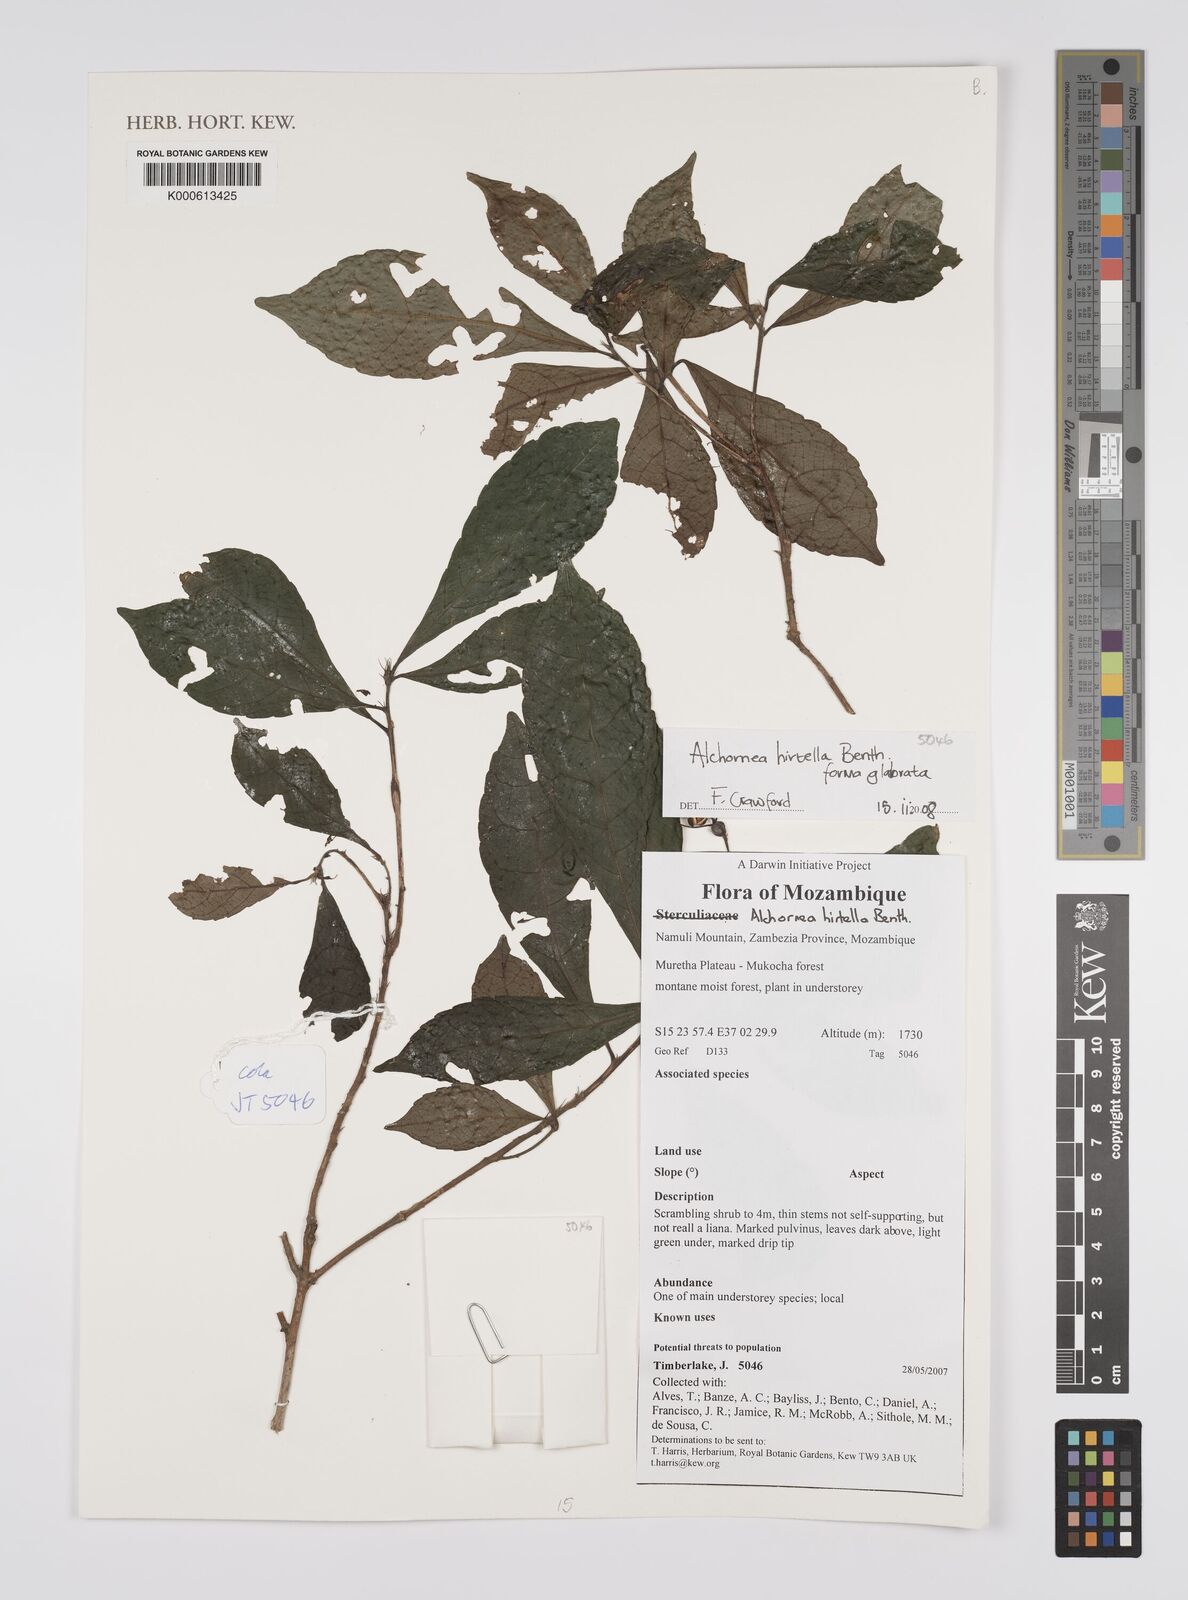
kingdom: Plantae
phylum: Tracheophyta
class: Magnoliopsida
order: Malpighiales
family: Euphorbiaceae
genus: Alchornea
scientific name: Alchornea hirtella
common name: Forest bead-string
